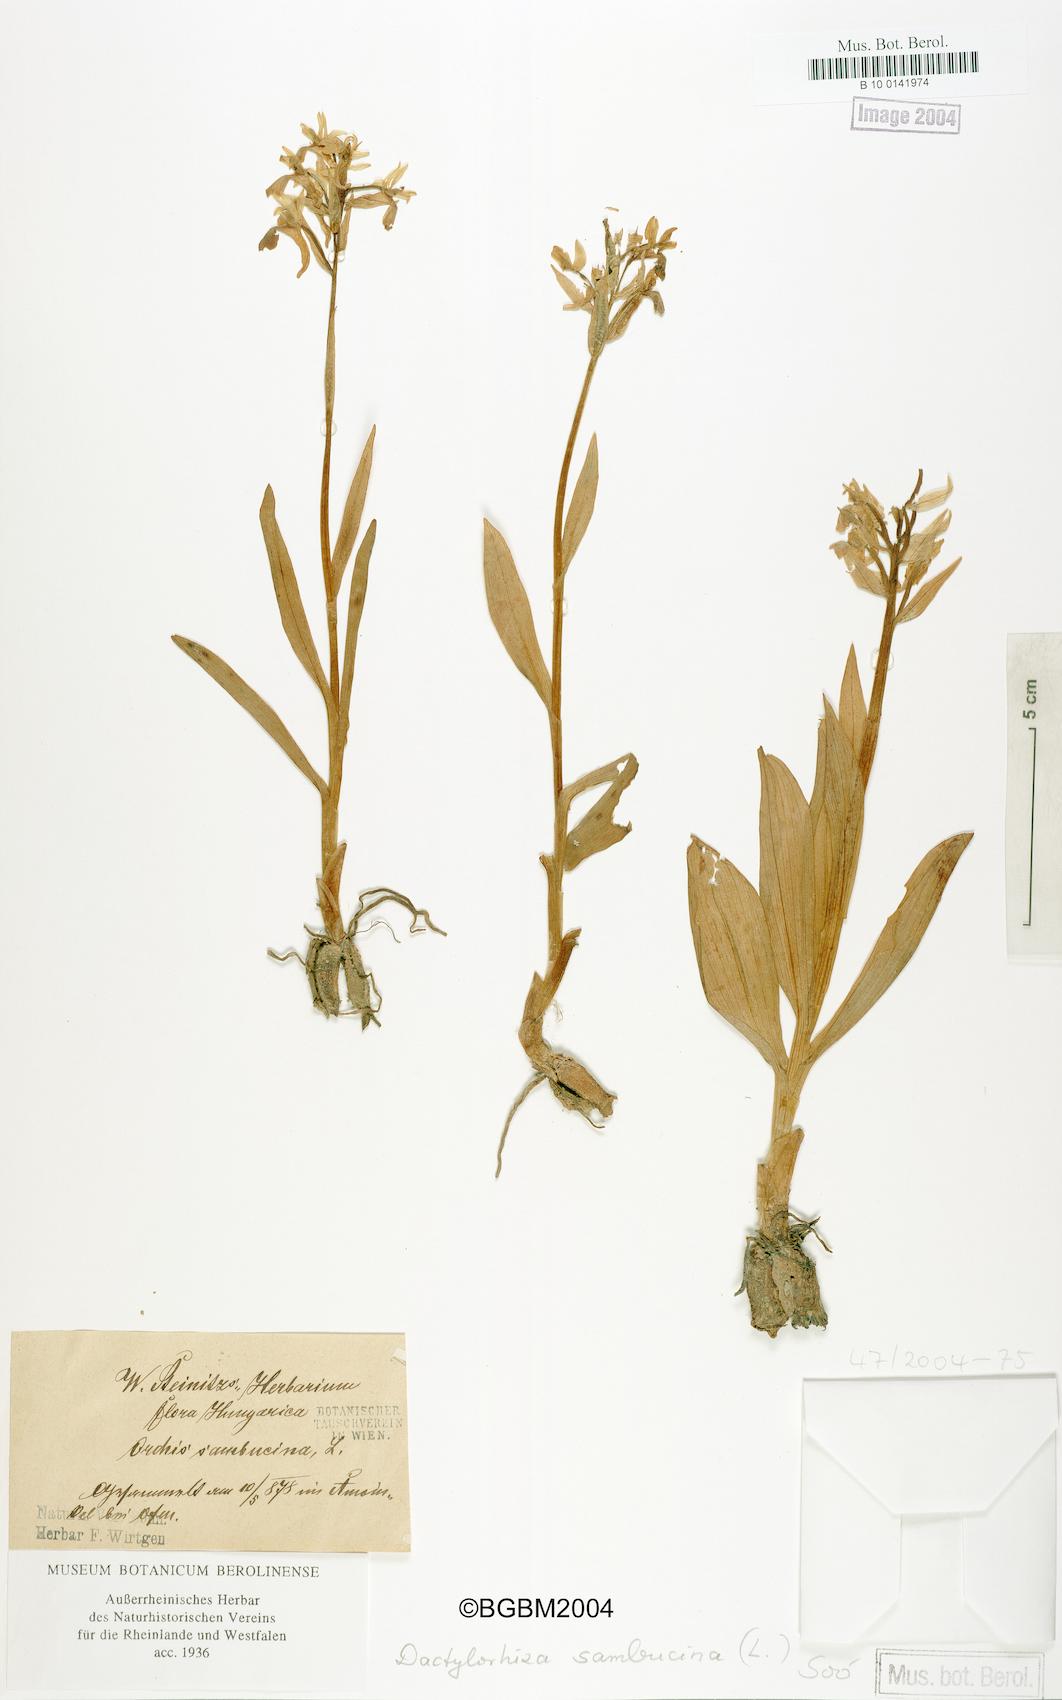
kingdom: Plantae
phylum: Tracheophyta
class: Liliopsida
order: Asparagales
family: Orchidaceae
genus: Dactylorhiza
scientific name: Dactylorhiza sambucina
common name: Elder-flowered orchid
